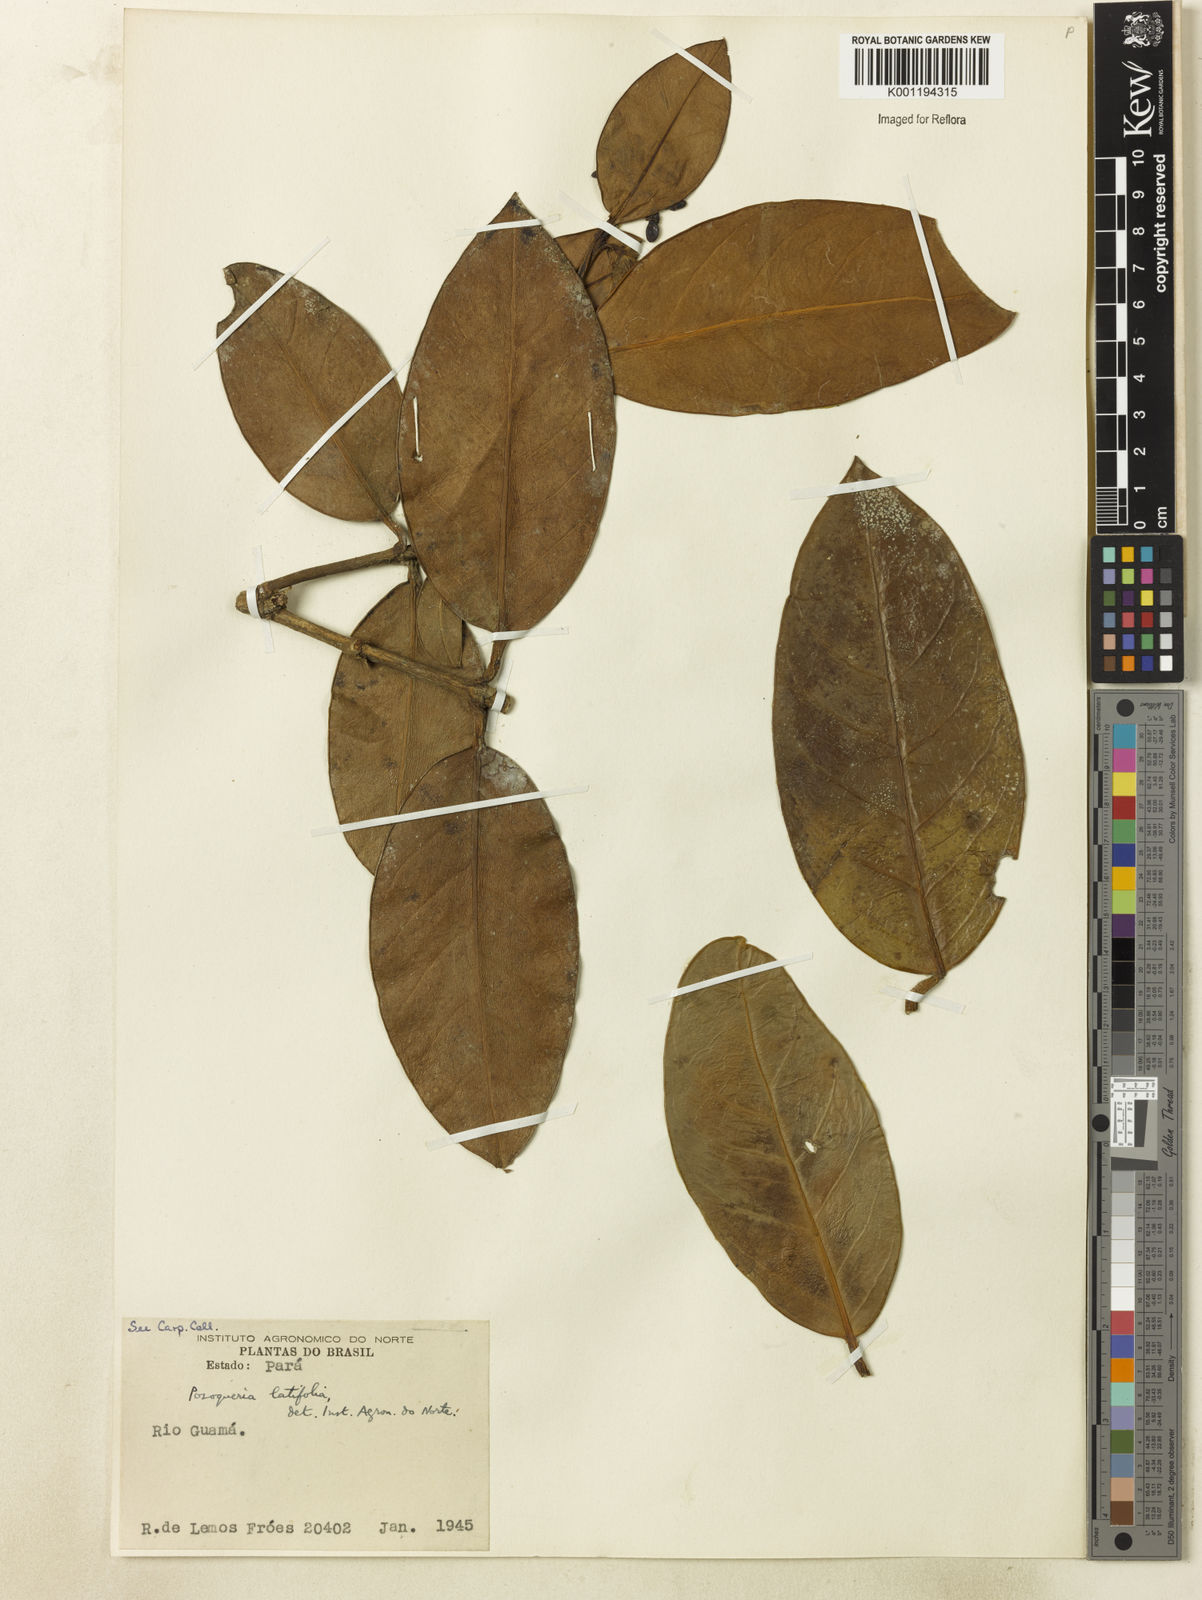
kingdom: Plantae
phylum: Tracheophyta
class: Magnoliopsida
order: Gentianales
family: Rubiaceae
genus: Posoqueria
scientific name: Posoqueria latifolia
